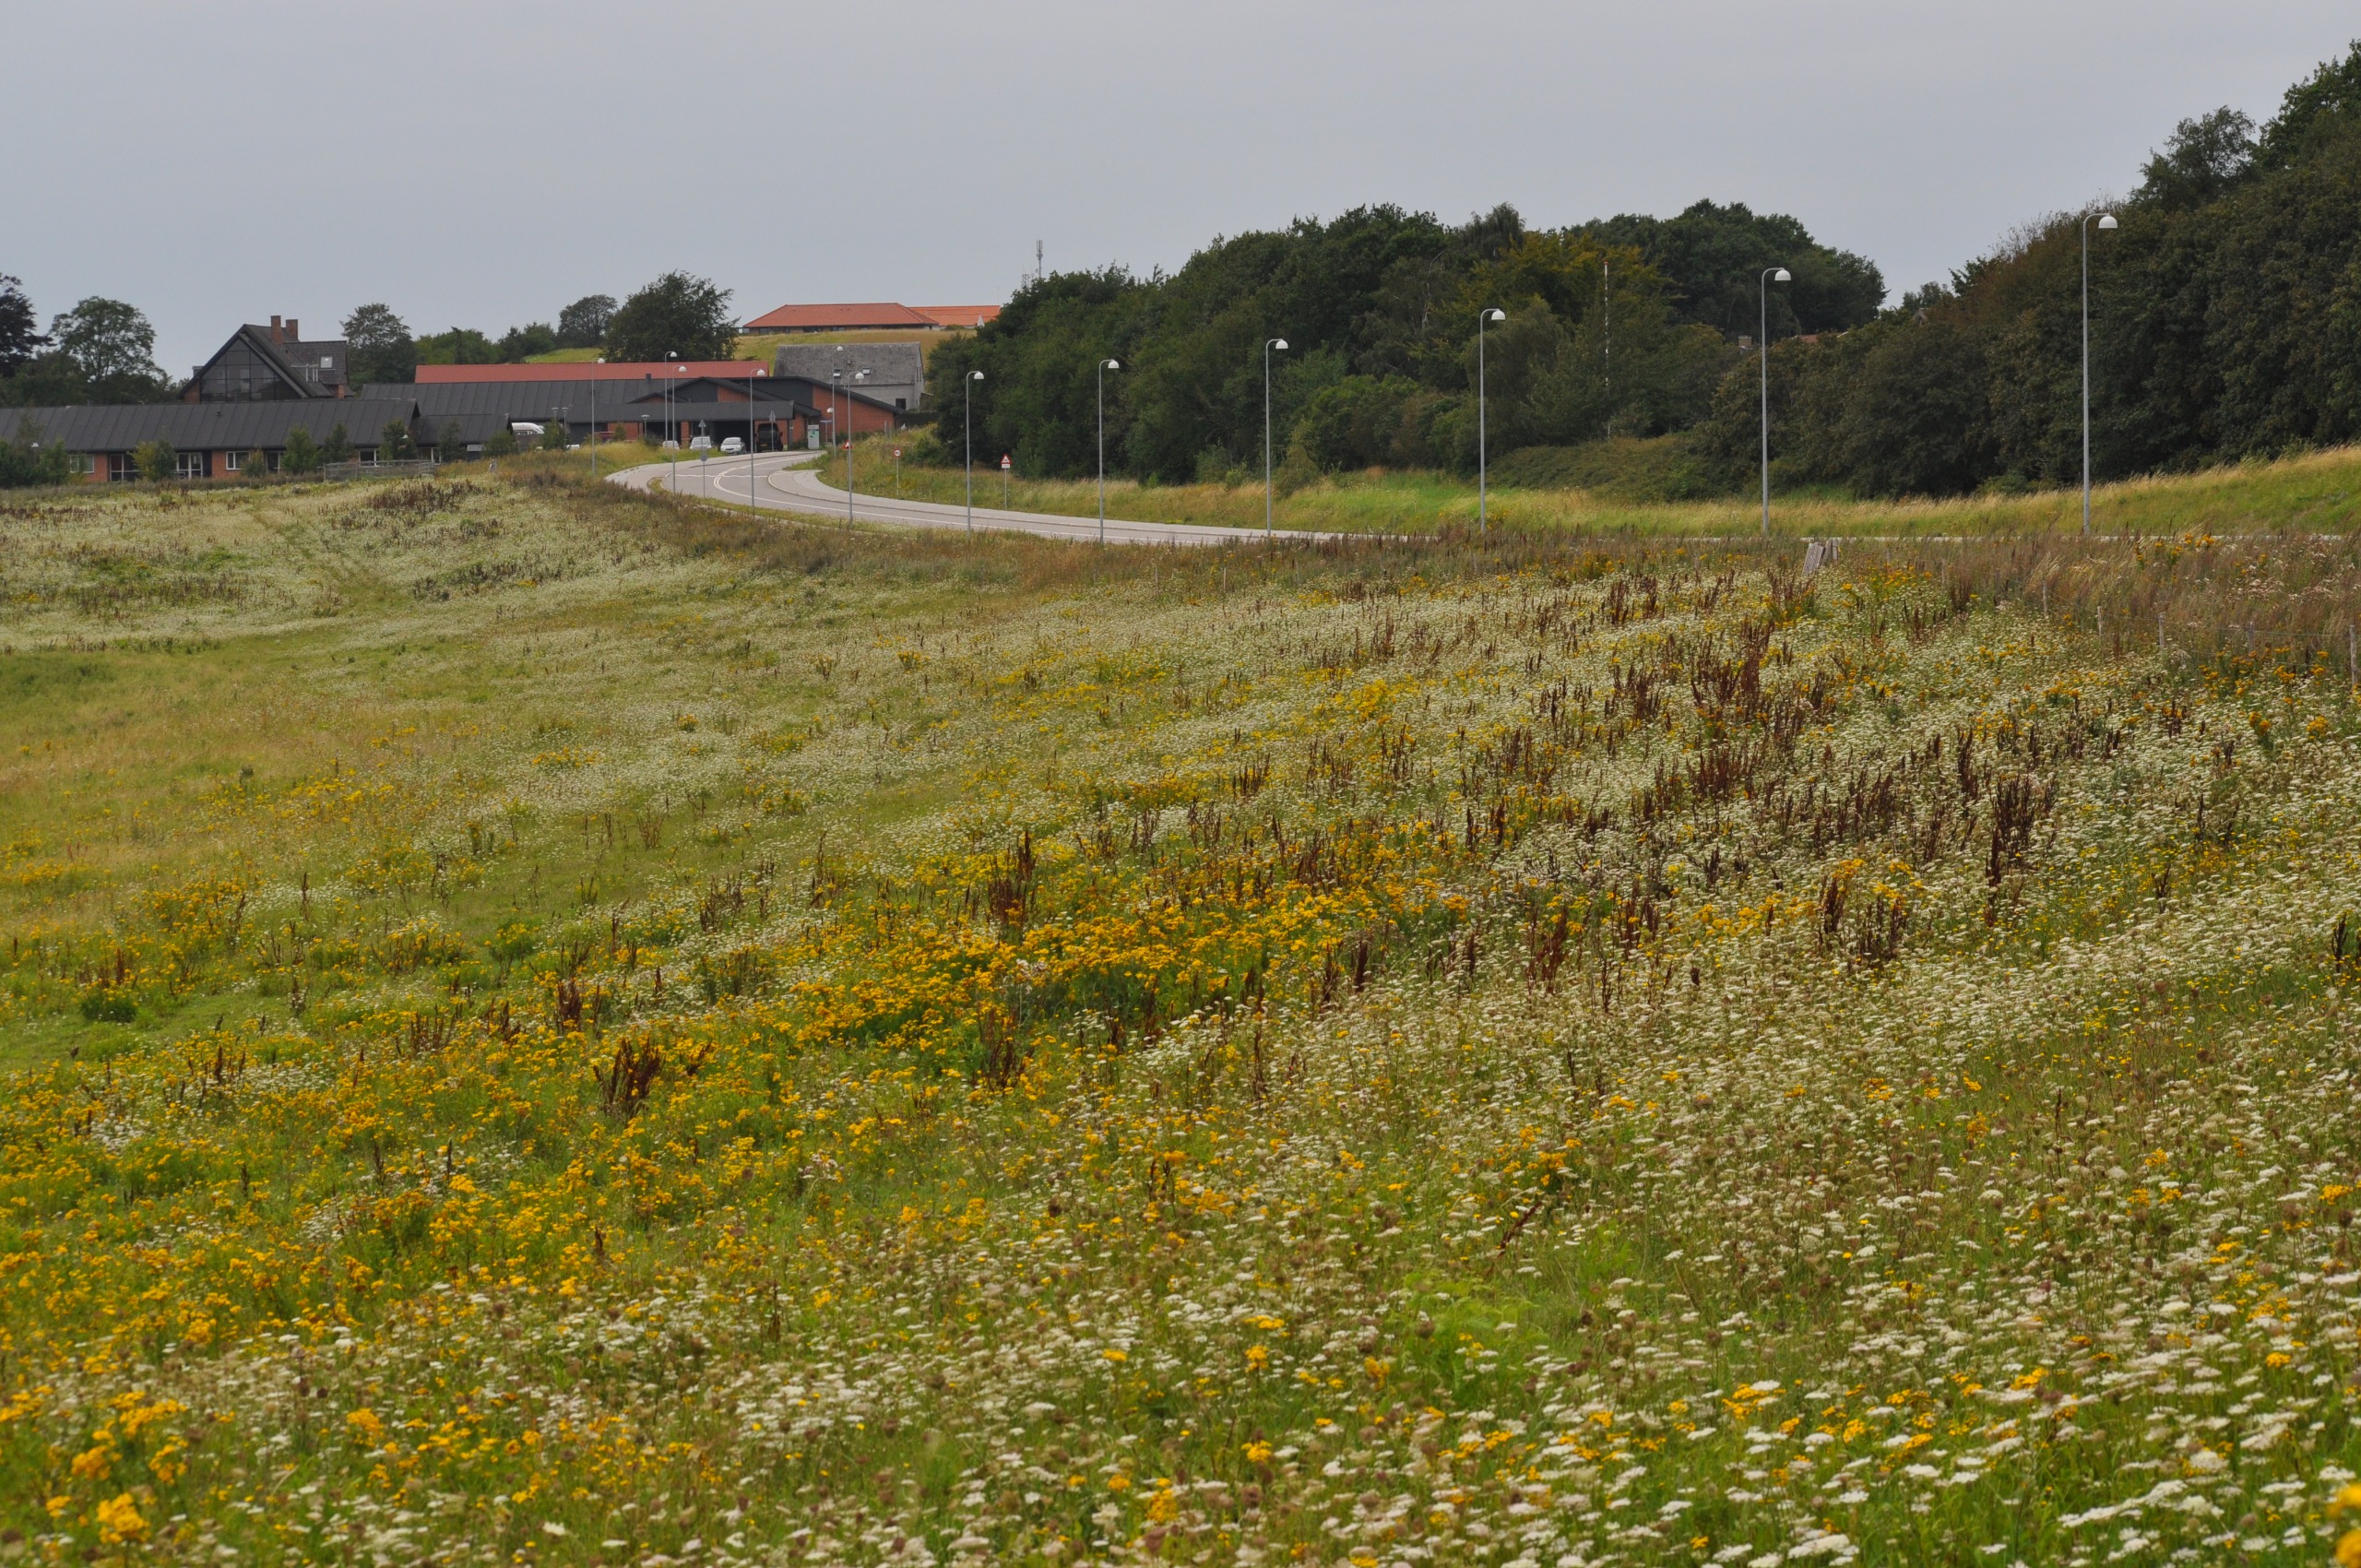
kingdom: Plantae
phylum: Tracheophyta
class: Magnoliopsida
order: Asterales
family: Asteraceae
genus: Tanacetum
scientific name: Tanacetum vulgare
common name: Rejnfan
